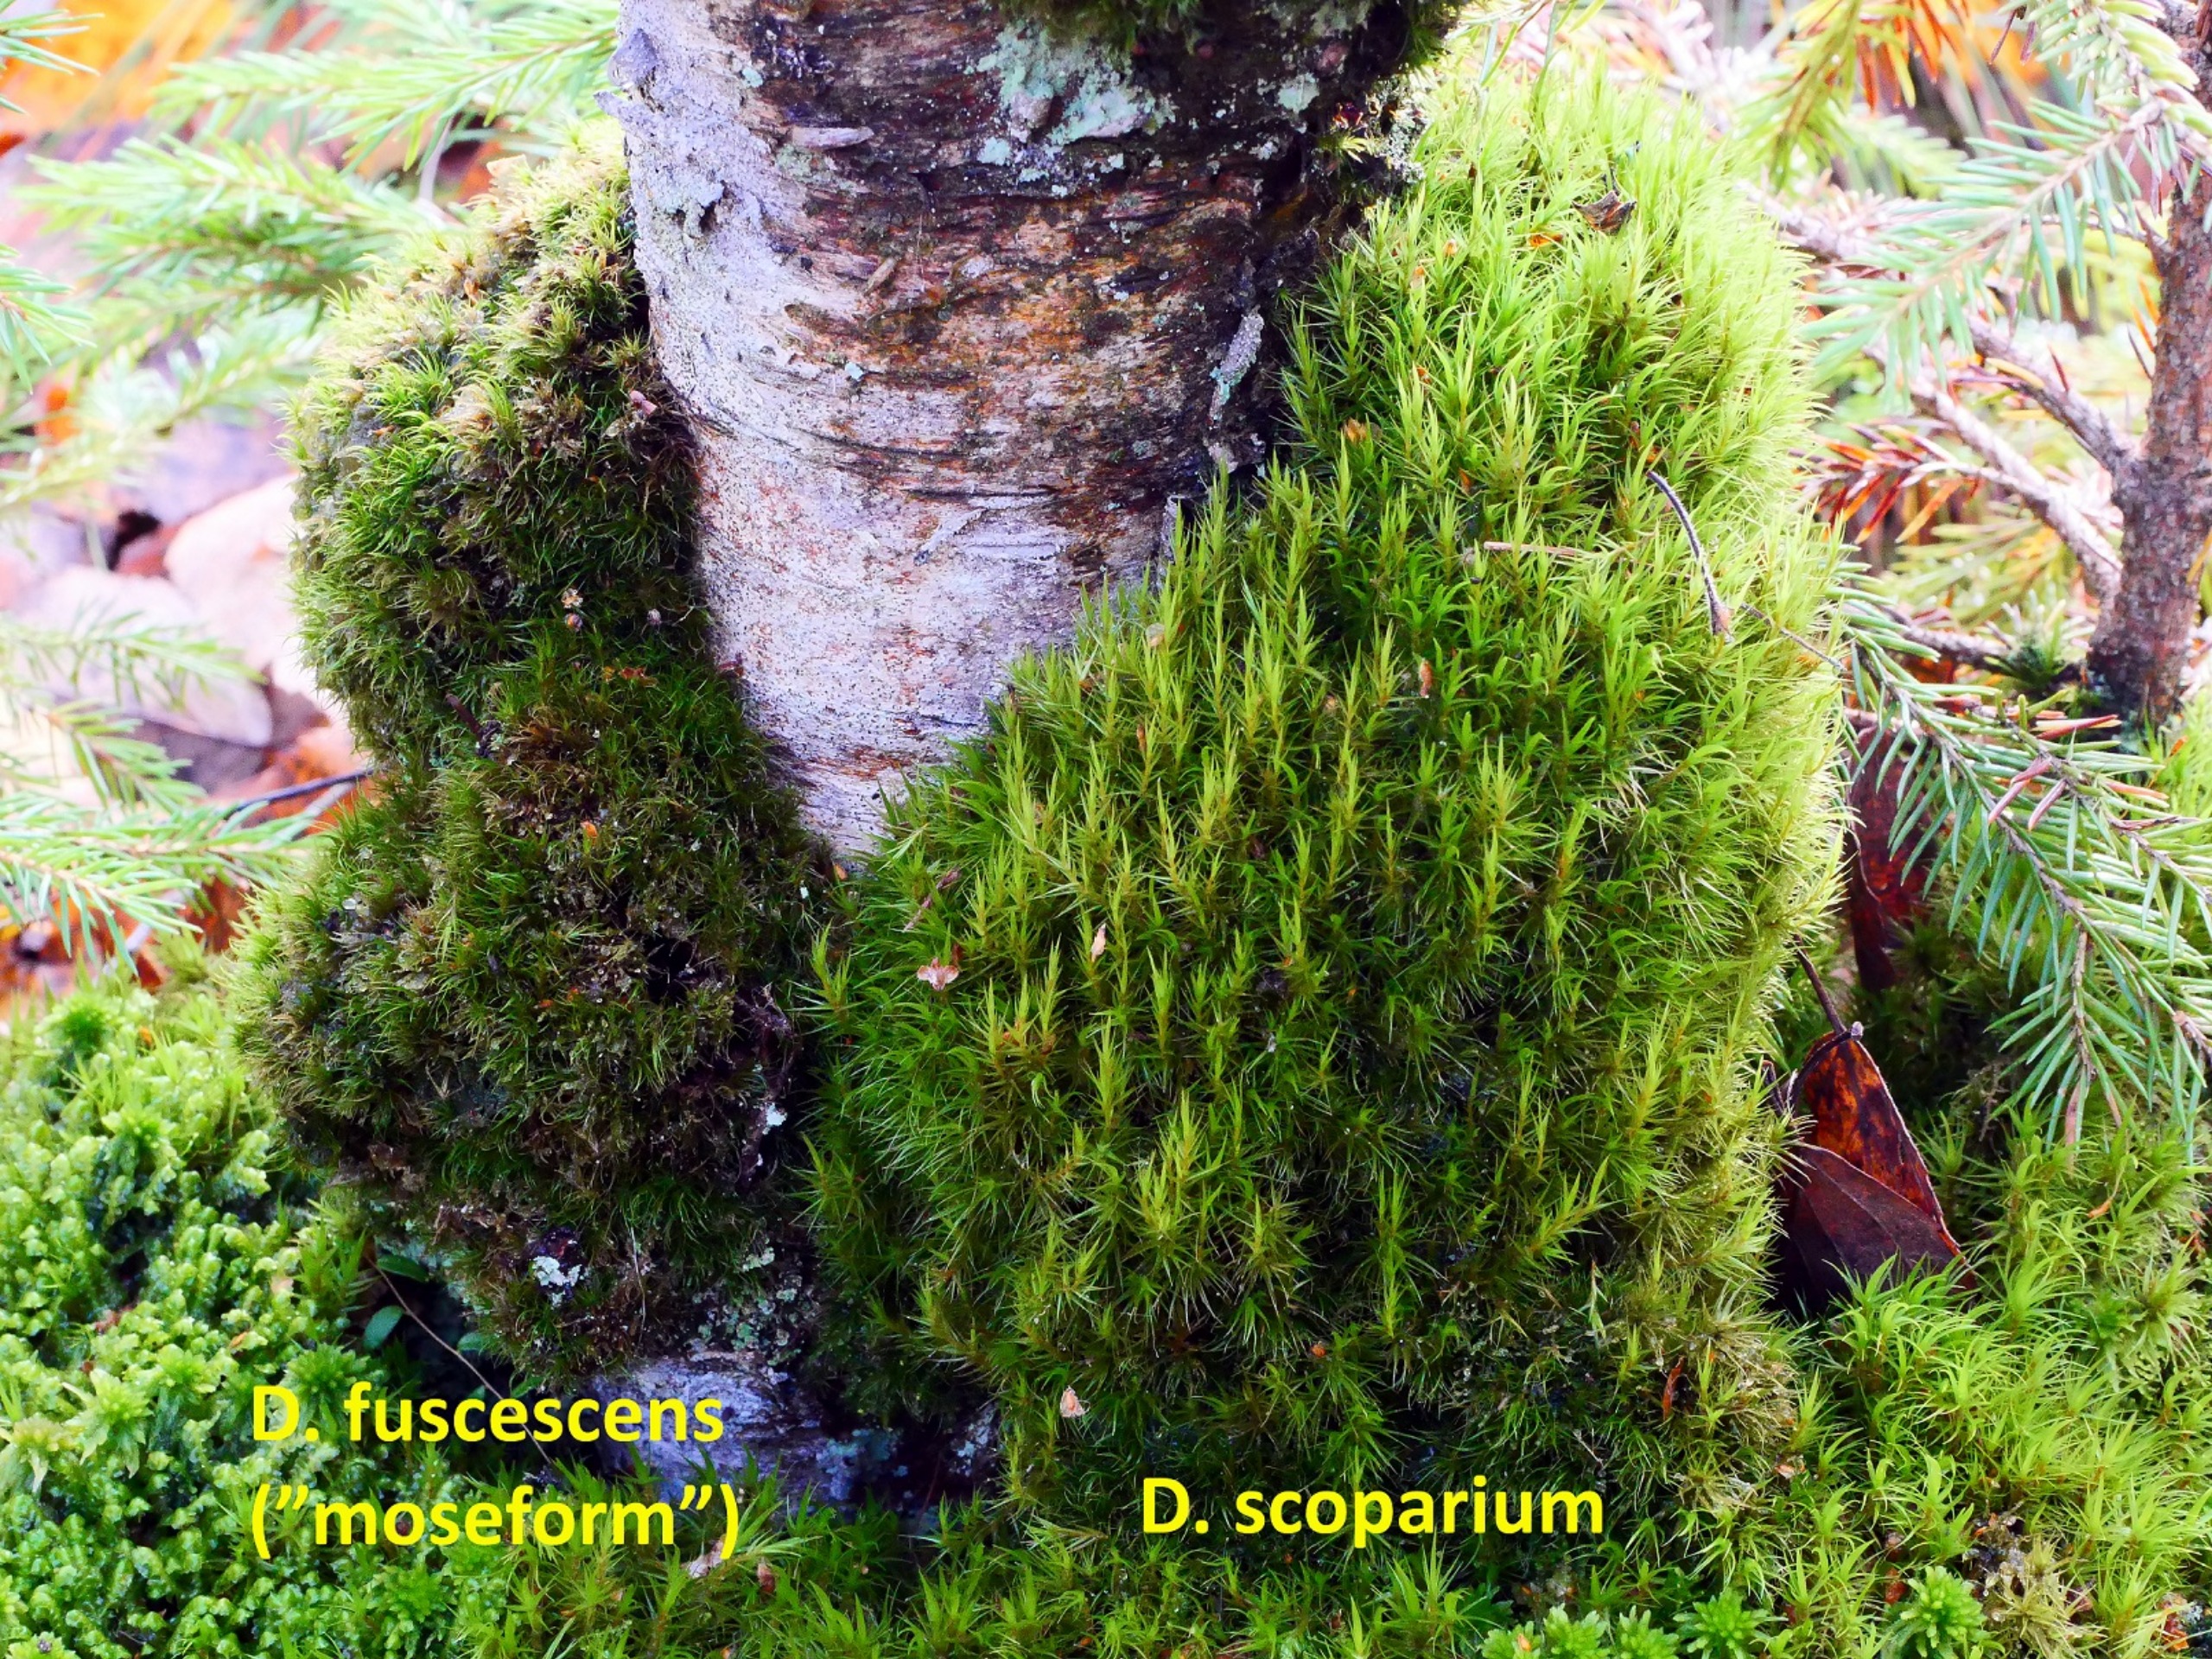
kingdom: Plantae
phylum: Bryophyta
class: Bryopsida
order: Dicranales
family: Dicranaceae
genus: Dicranum
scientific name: Dicranum fuscescens
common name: Mørk kløvtand
